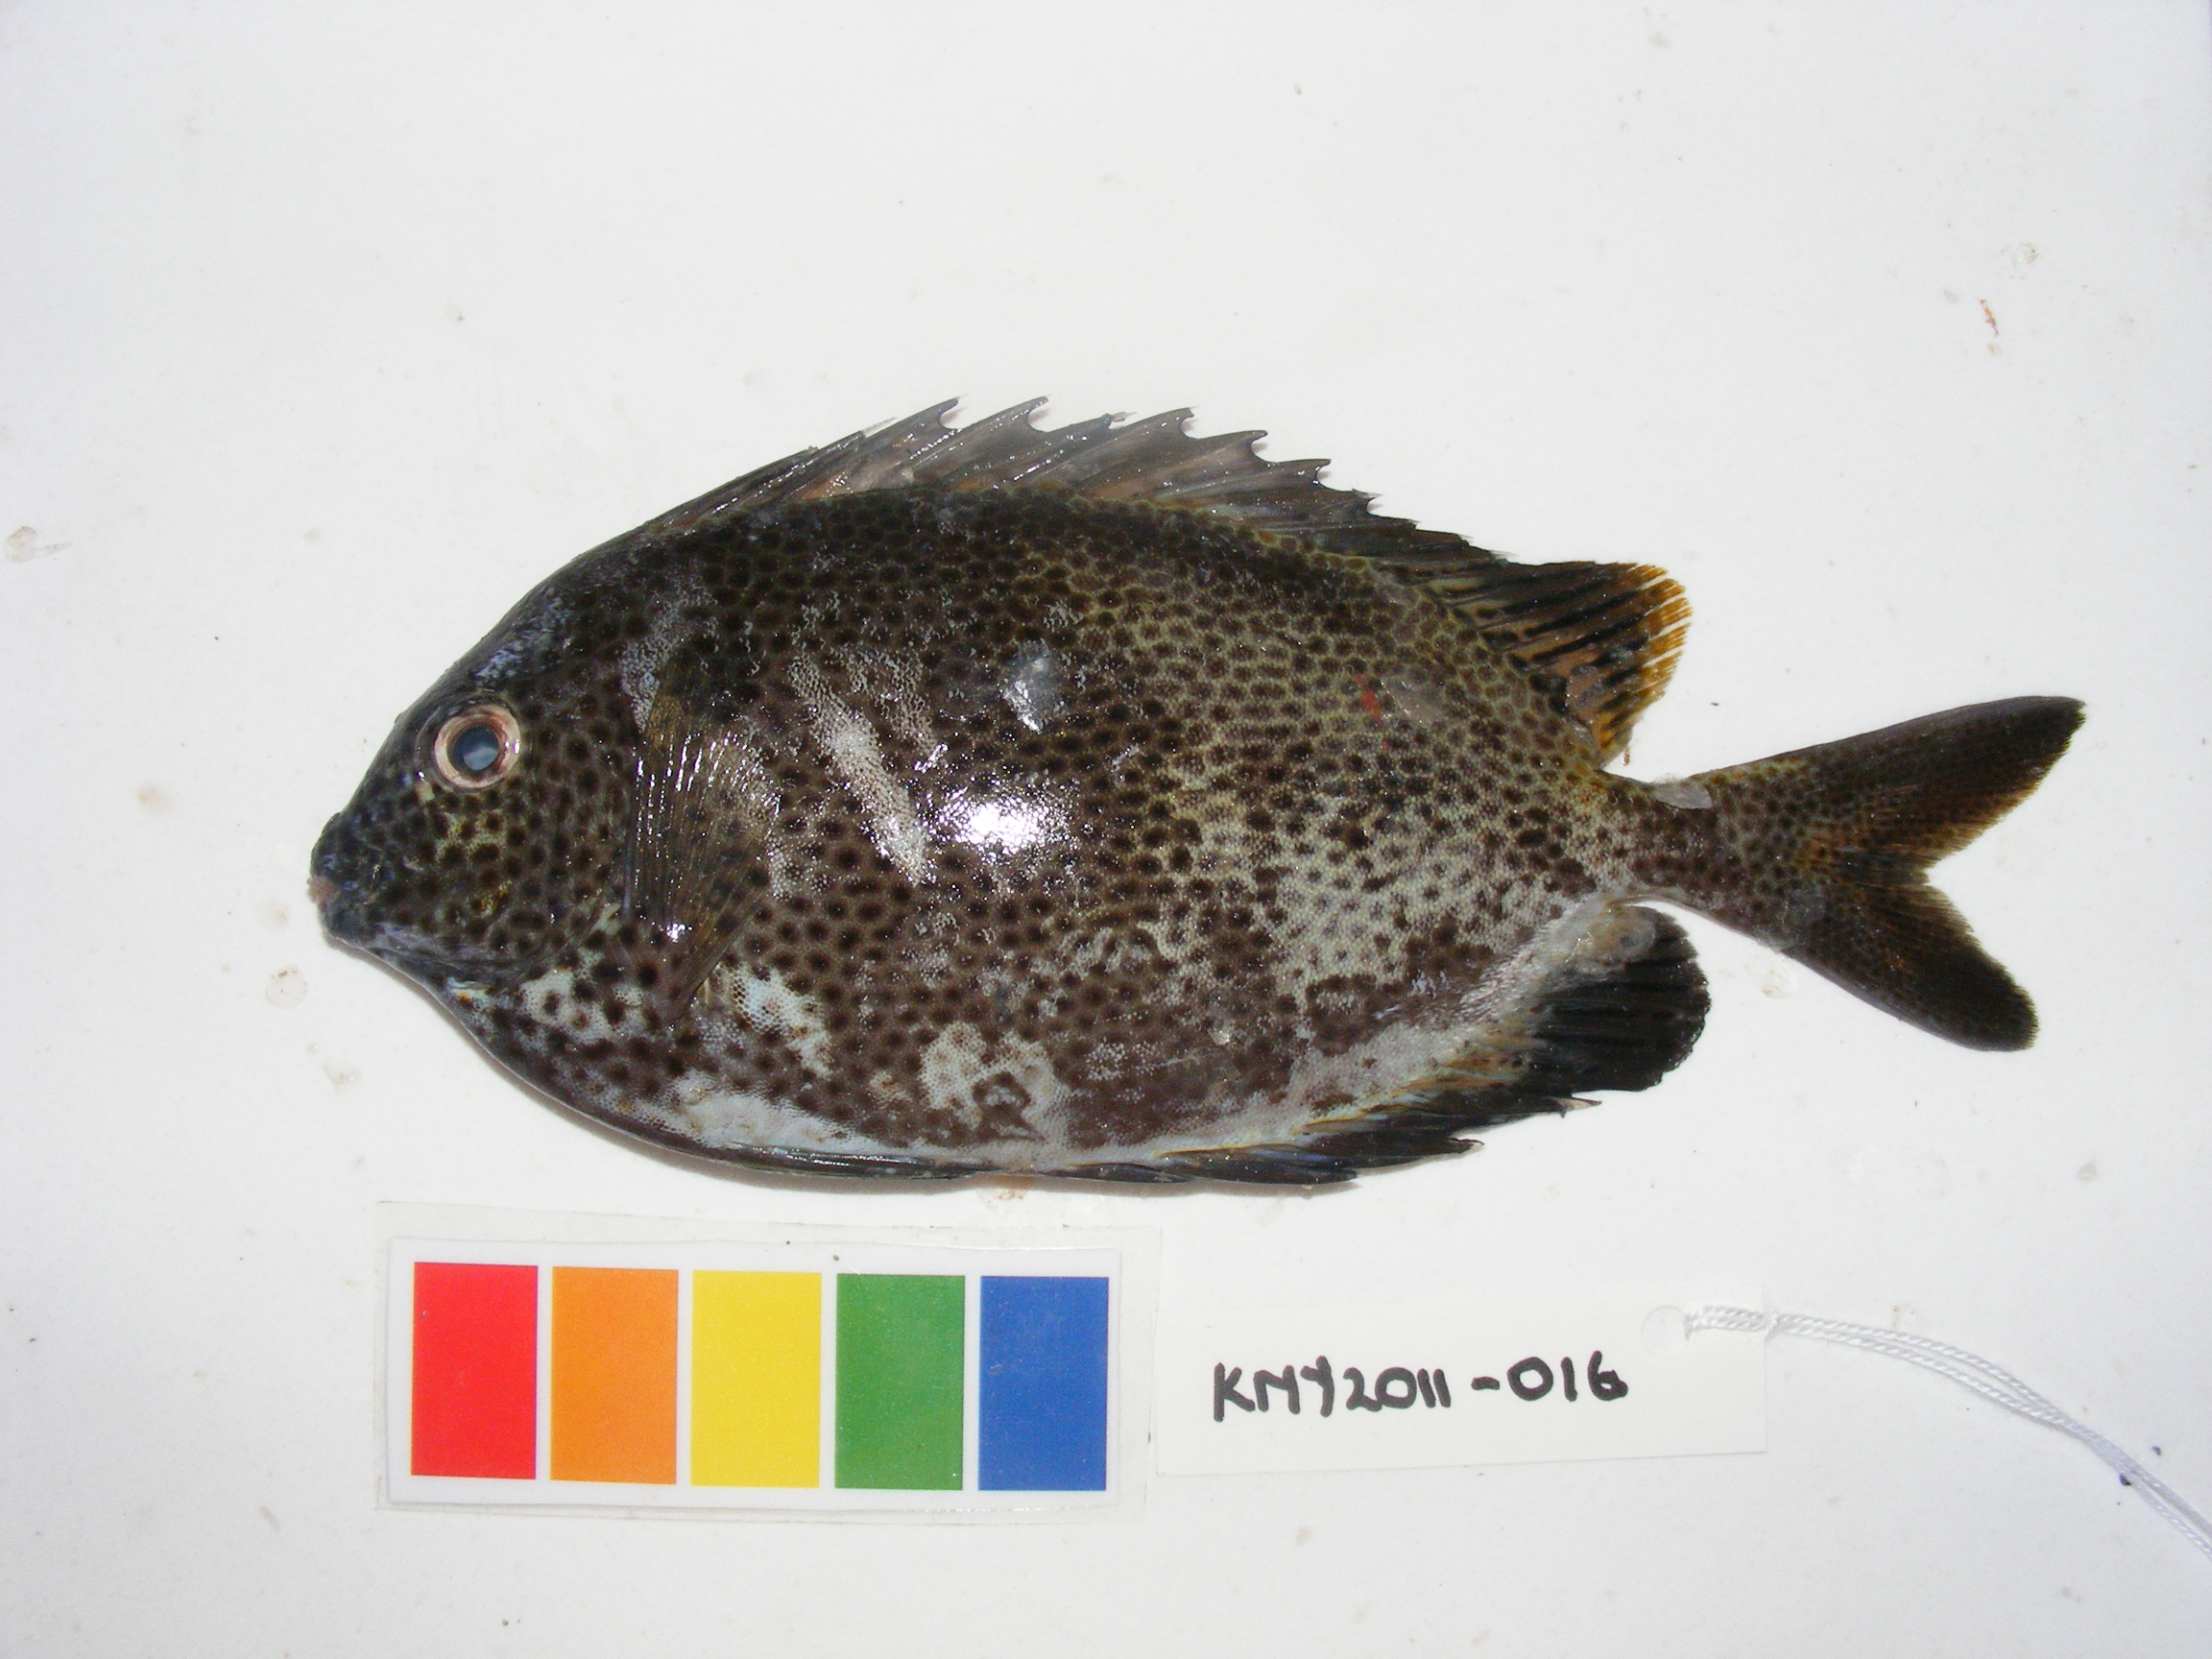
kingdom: Animalia
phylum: Chordata
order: Perciformes
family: Siganidae
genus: Siganus
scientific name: Siganus stellatus
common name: Brown-spotted spinefoot
